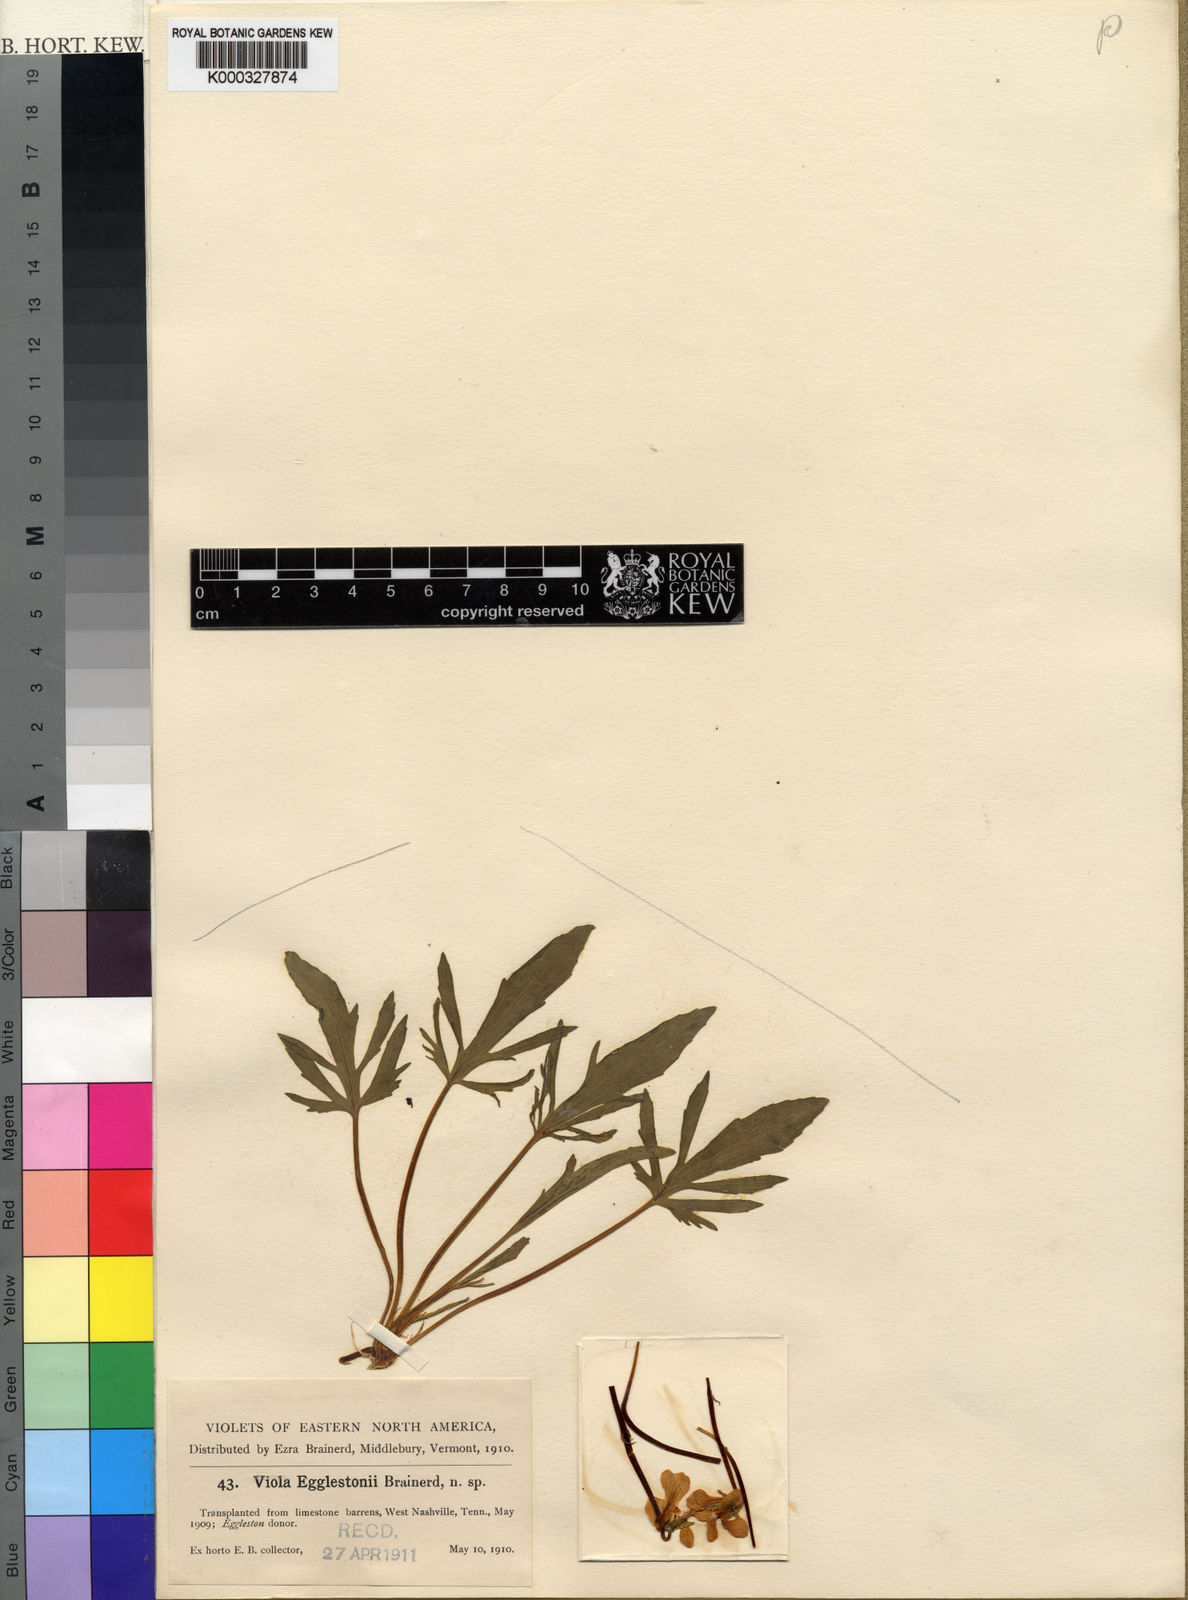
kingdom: Plantae
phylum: Tracheophyta
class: Magnoliopsida
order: Malpighiales
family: Violaceae
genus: Viola
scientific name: Viola egglestonii
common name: Glade violet
